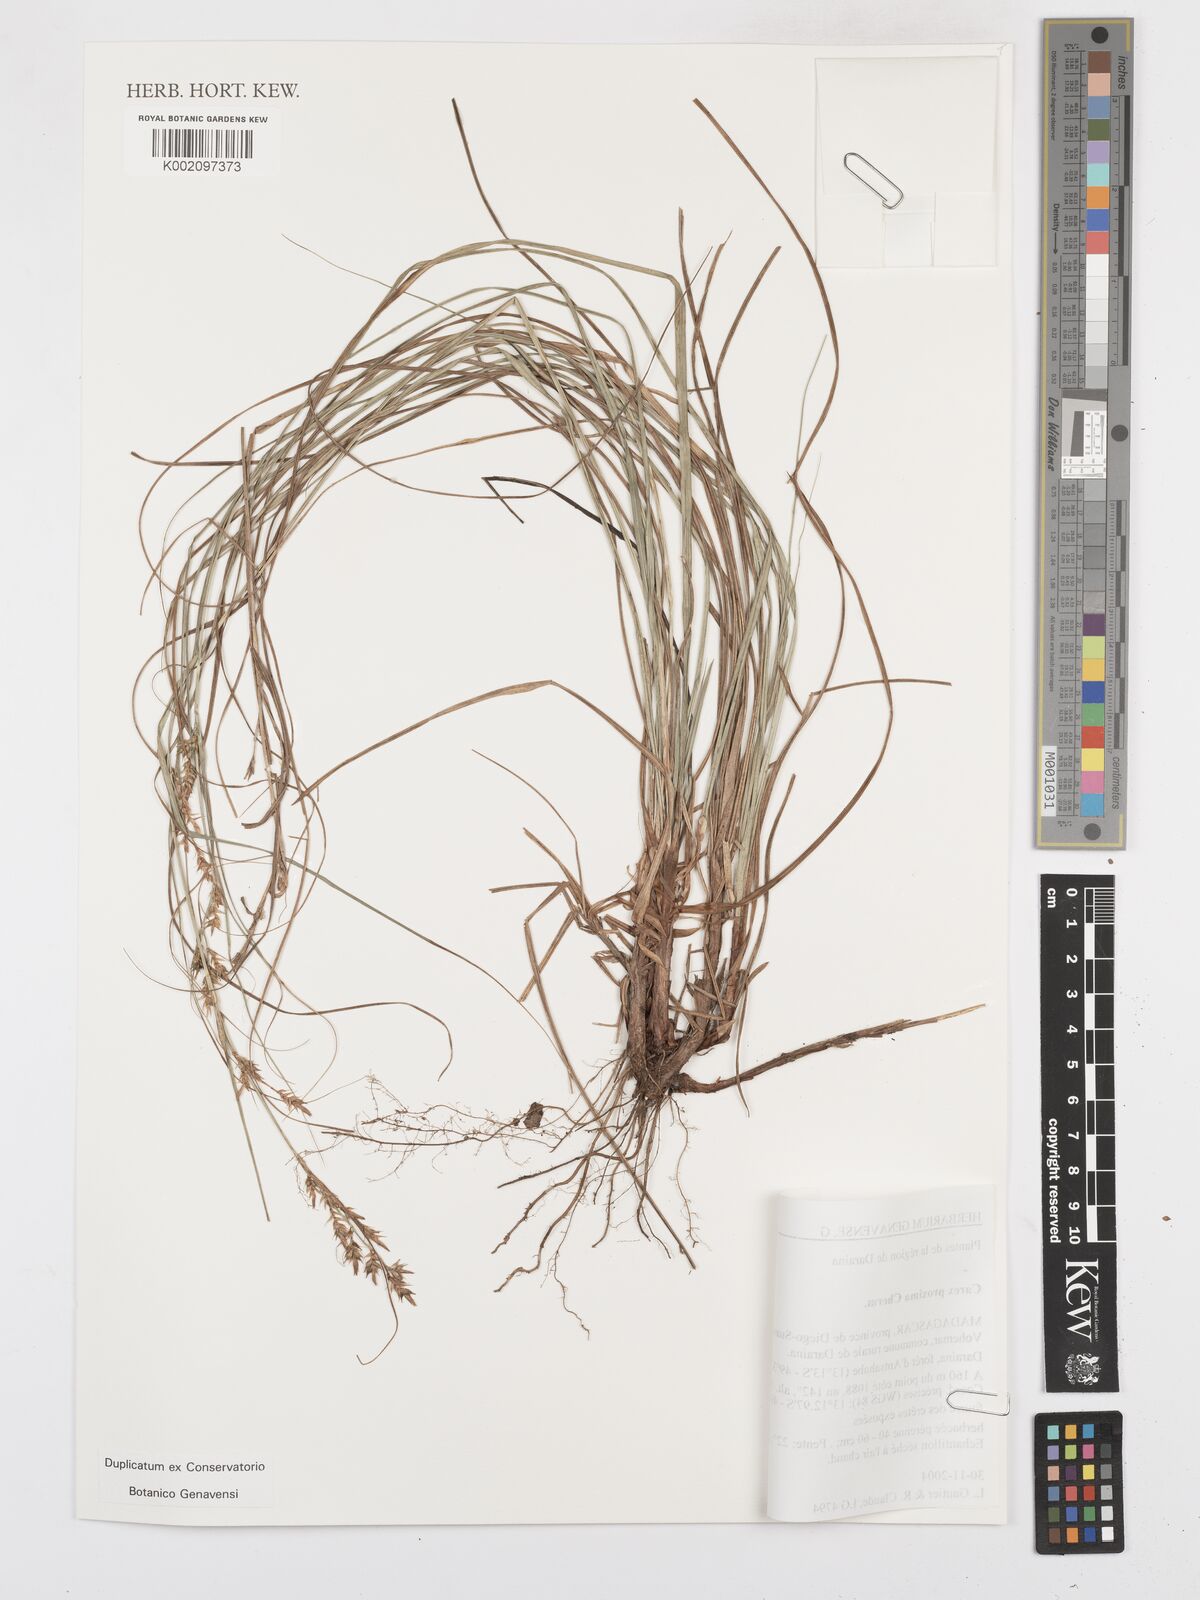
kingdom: Plantae
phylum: Tracheophyta
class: Liliopsida
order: Poales
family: Cyperaceae
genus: Carex
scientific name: Carex proxima
